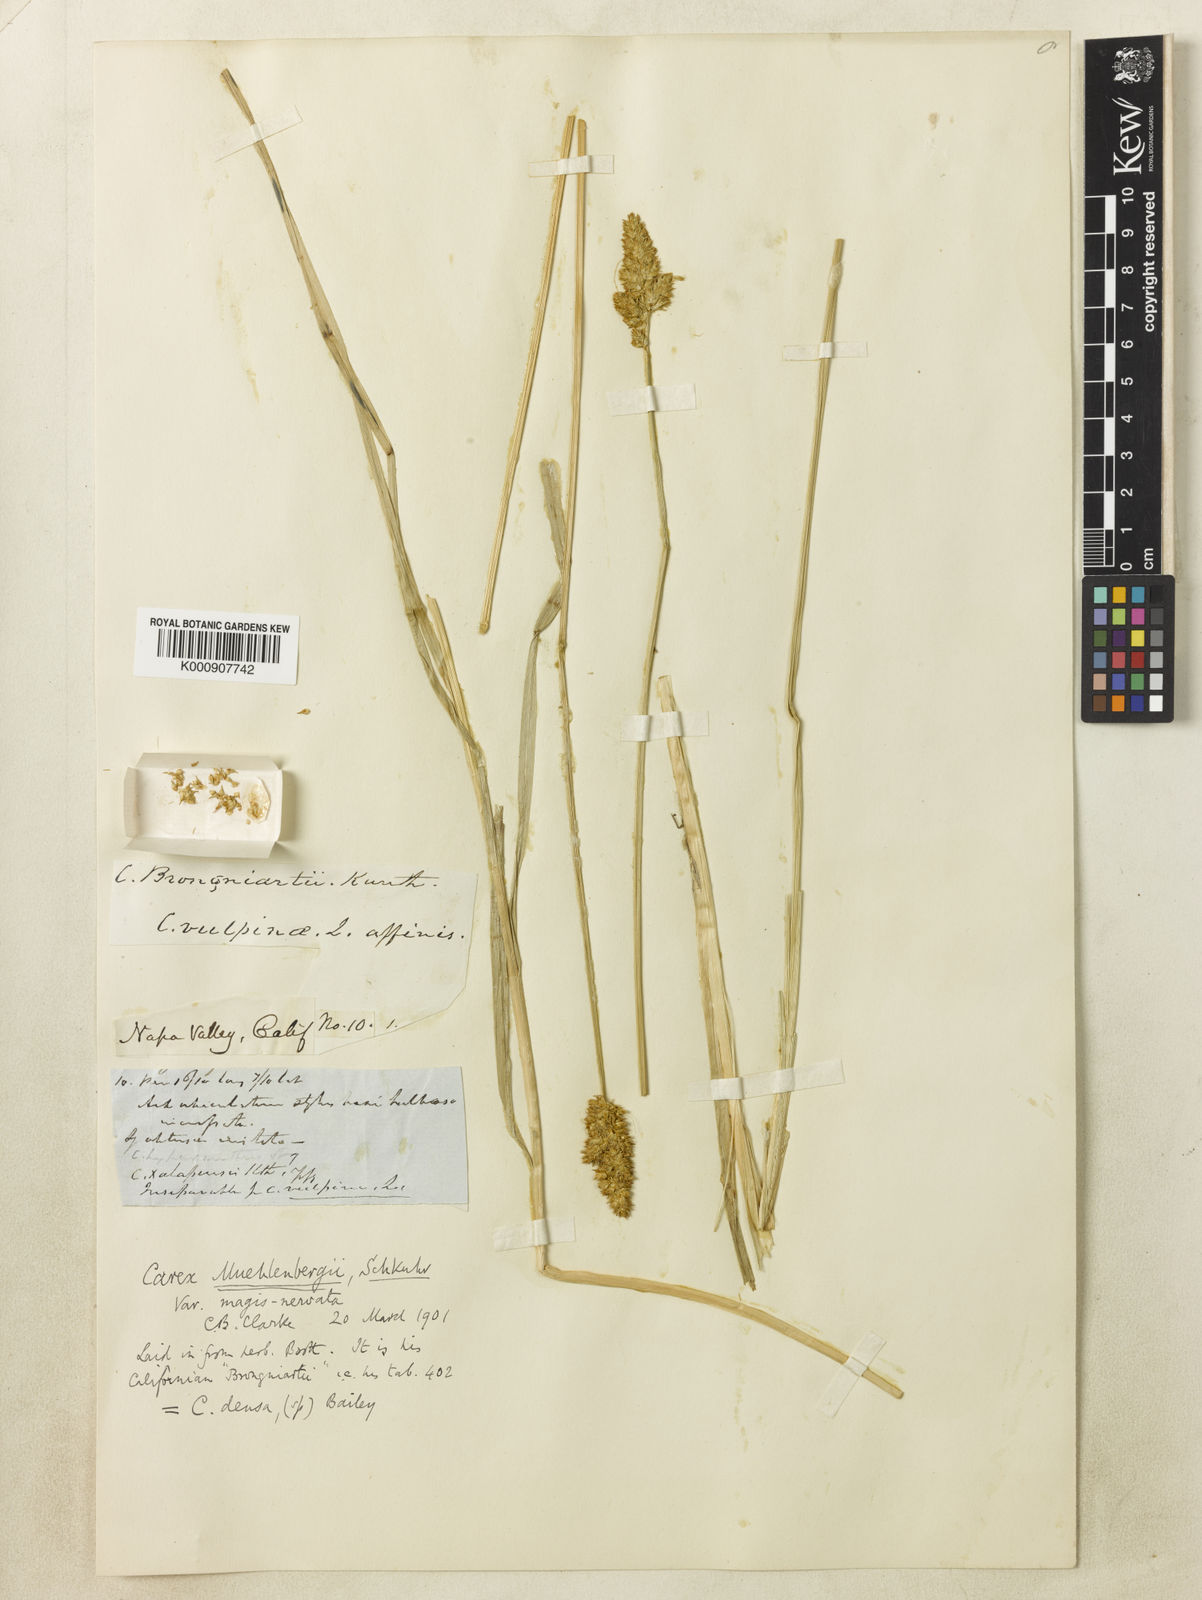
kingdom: Plantae
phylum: Tracheophyta
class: Liliopsida
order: Poales
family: Cyperaceae
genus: Carex
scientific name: Carex densa
